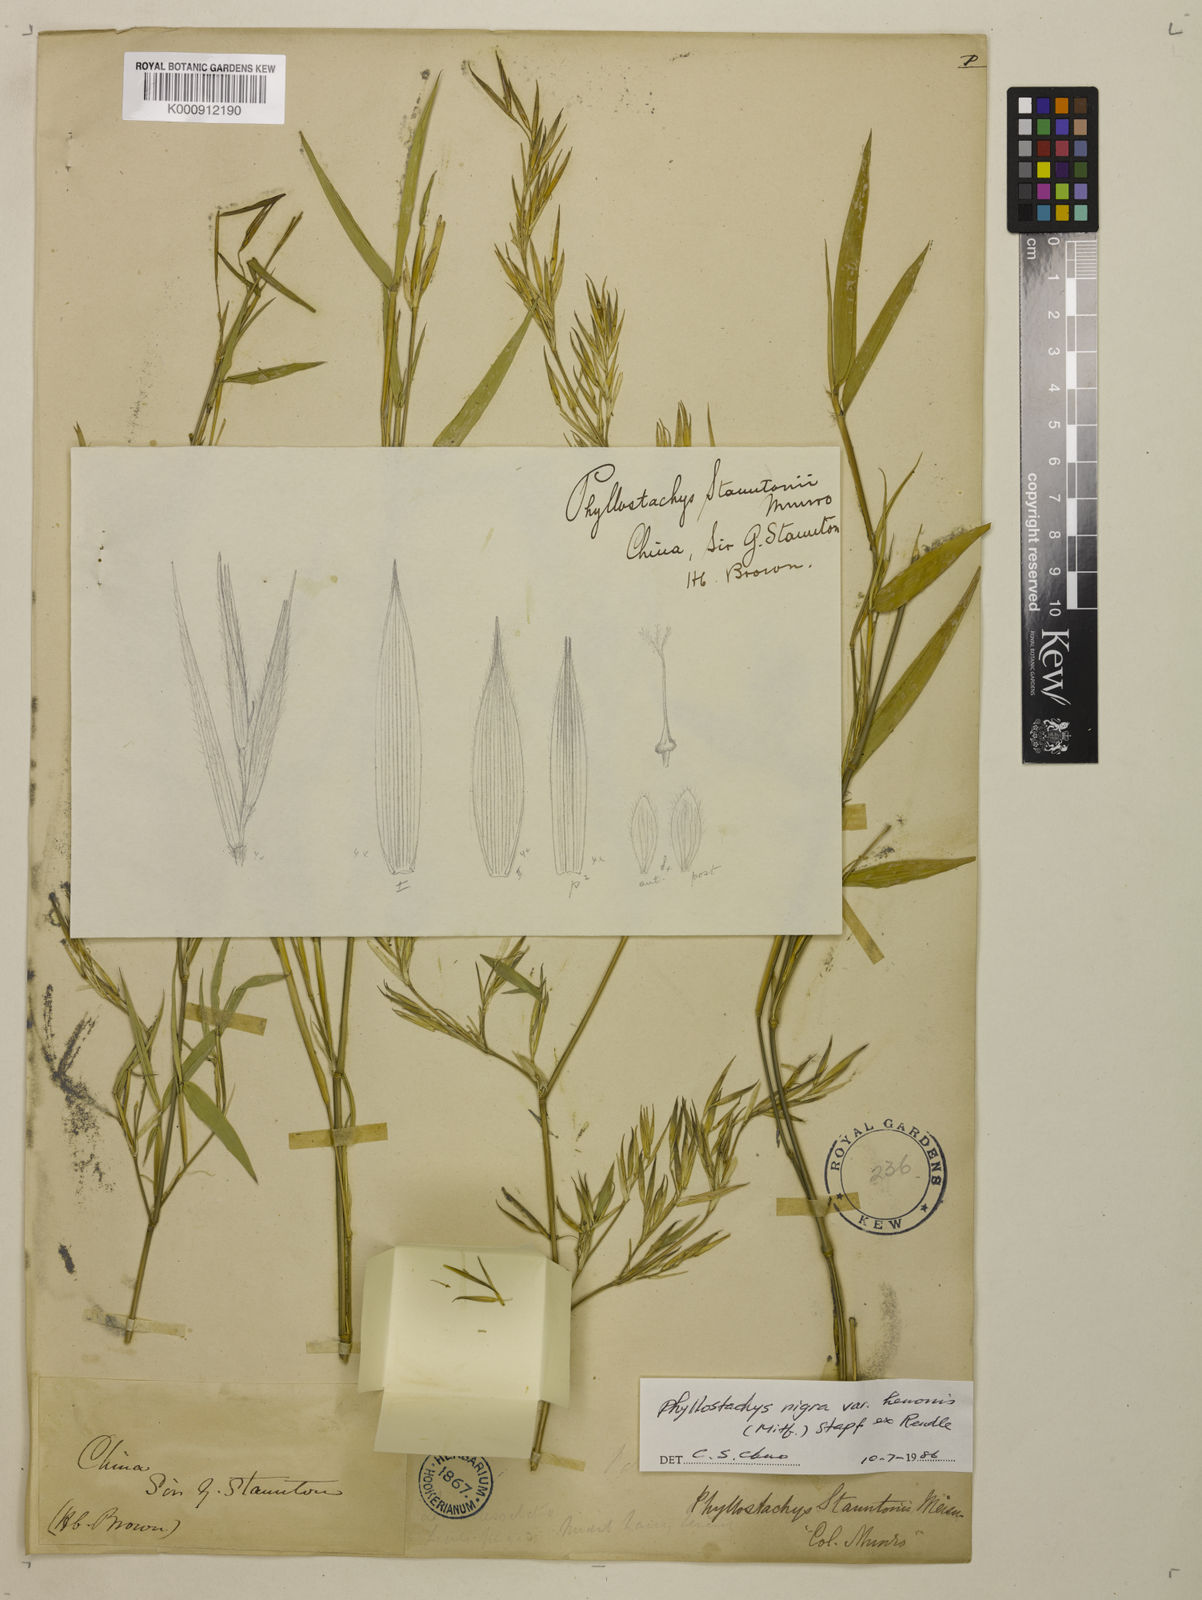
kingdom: Plantae
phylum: Tracheophyta
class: Liliopsida
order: Poales
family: Poaceae
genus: Phyllostachys
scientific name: Phyllostachys nigra
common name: Black bamboo
